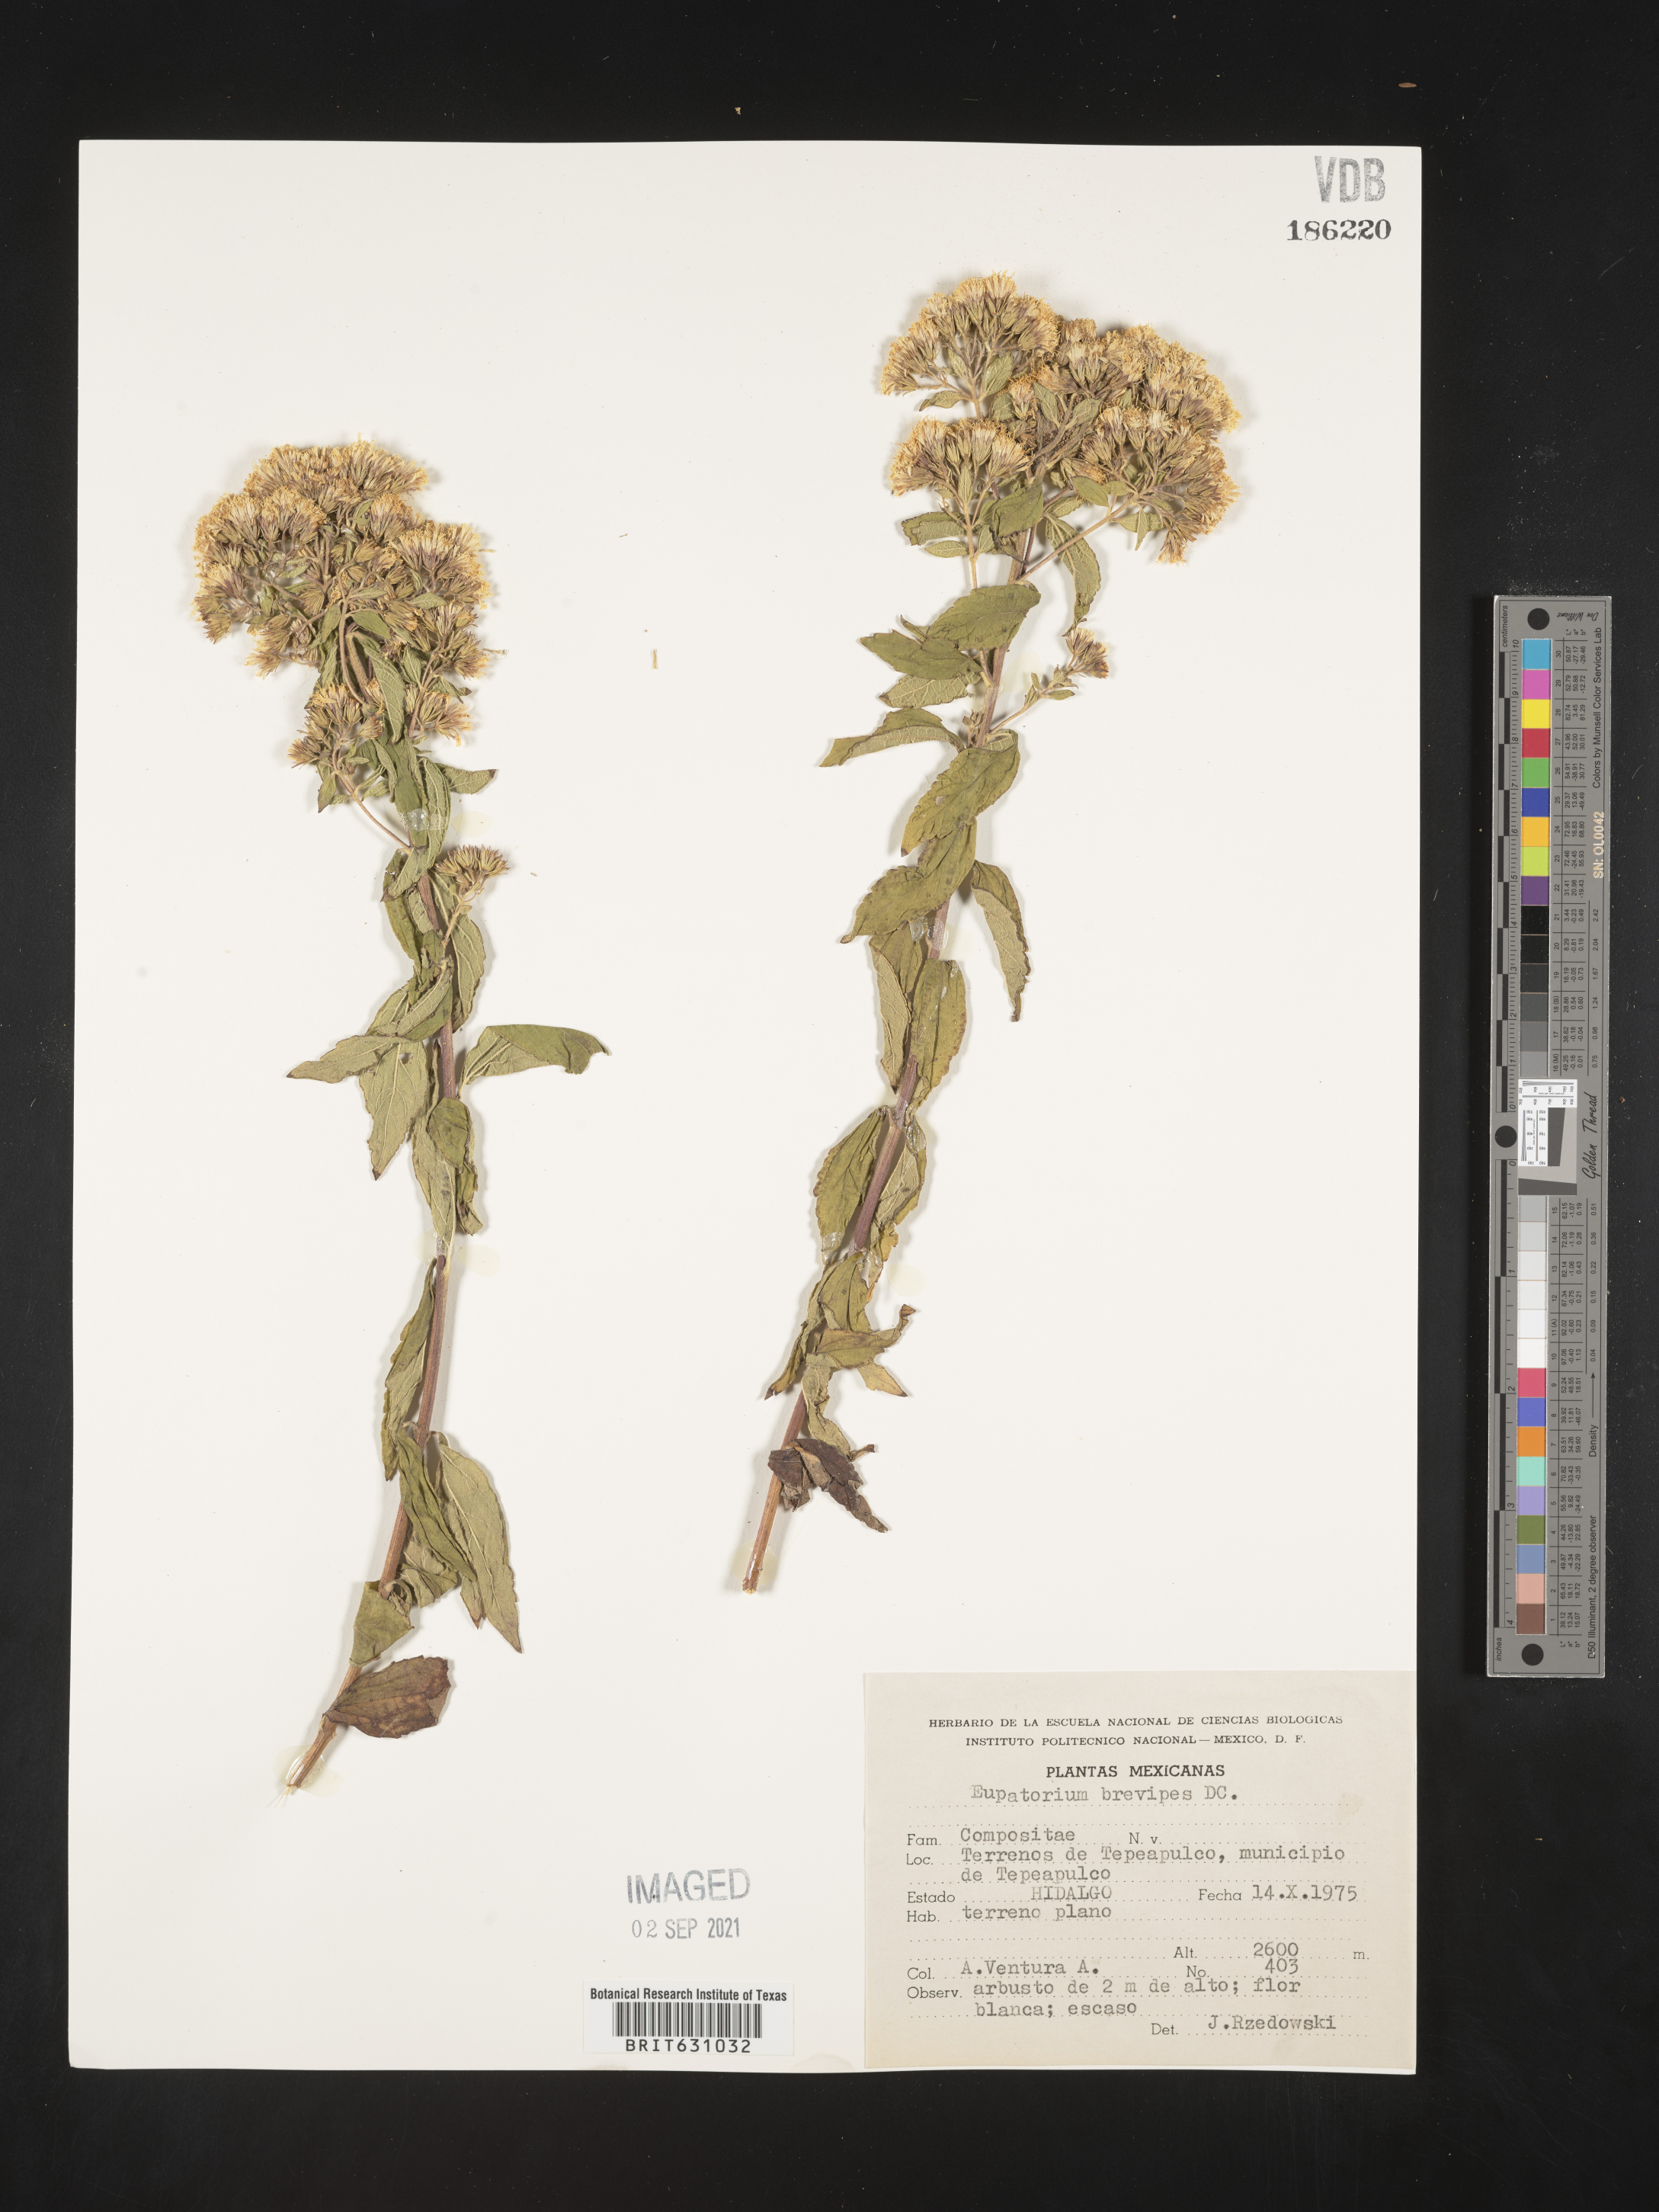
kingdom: Plantae
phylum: Tracheophyta
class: Magnoliopsida
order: Asterales
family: Asteraceae
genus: Eupatorium
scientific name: Eupatorium
